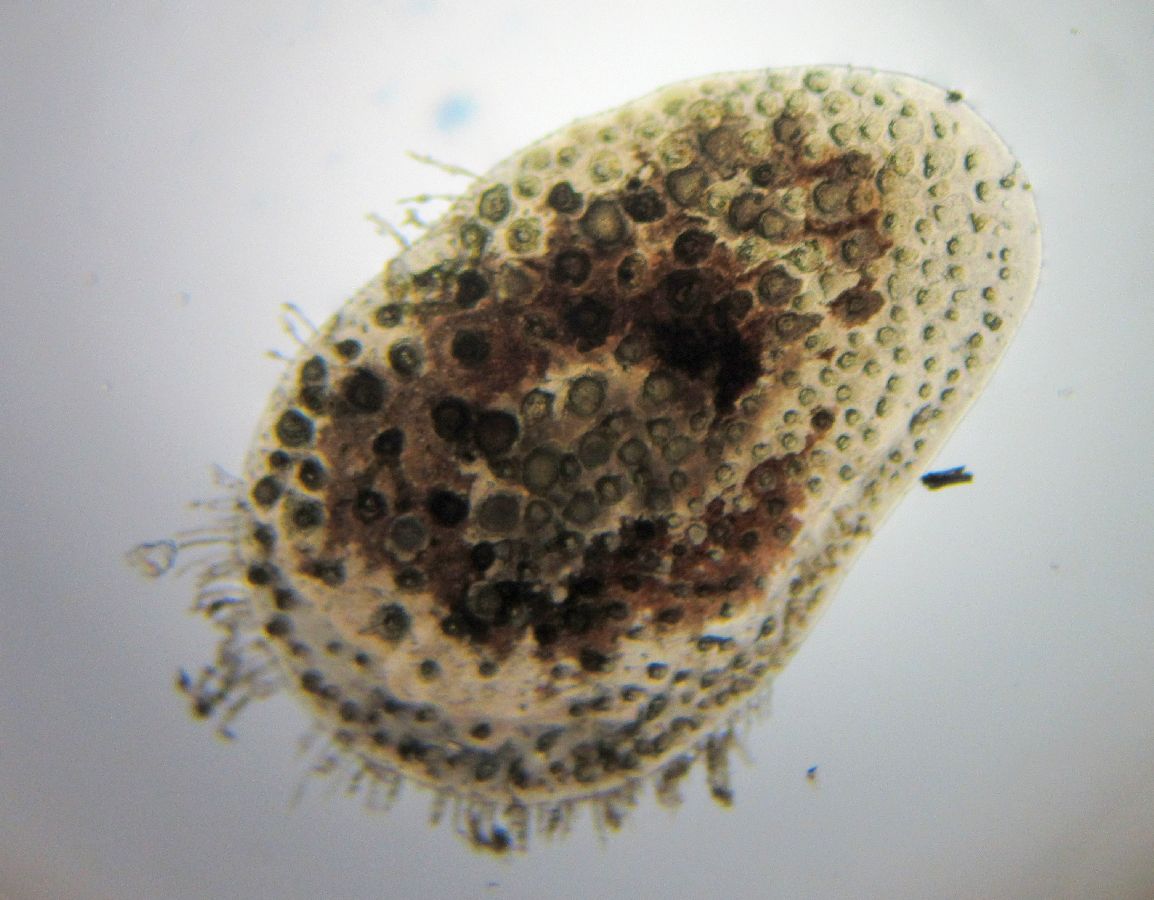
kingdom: Animalia
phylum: Annelida
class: Polychaeta
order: Phyllodocida
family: Polynoidae
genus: Harmothoe
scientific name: Harmothoe imbricata
